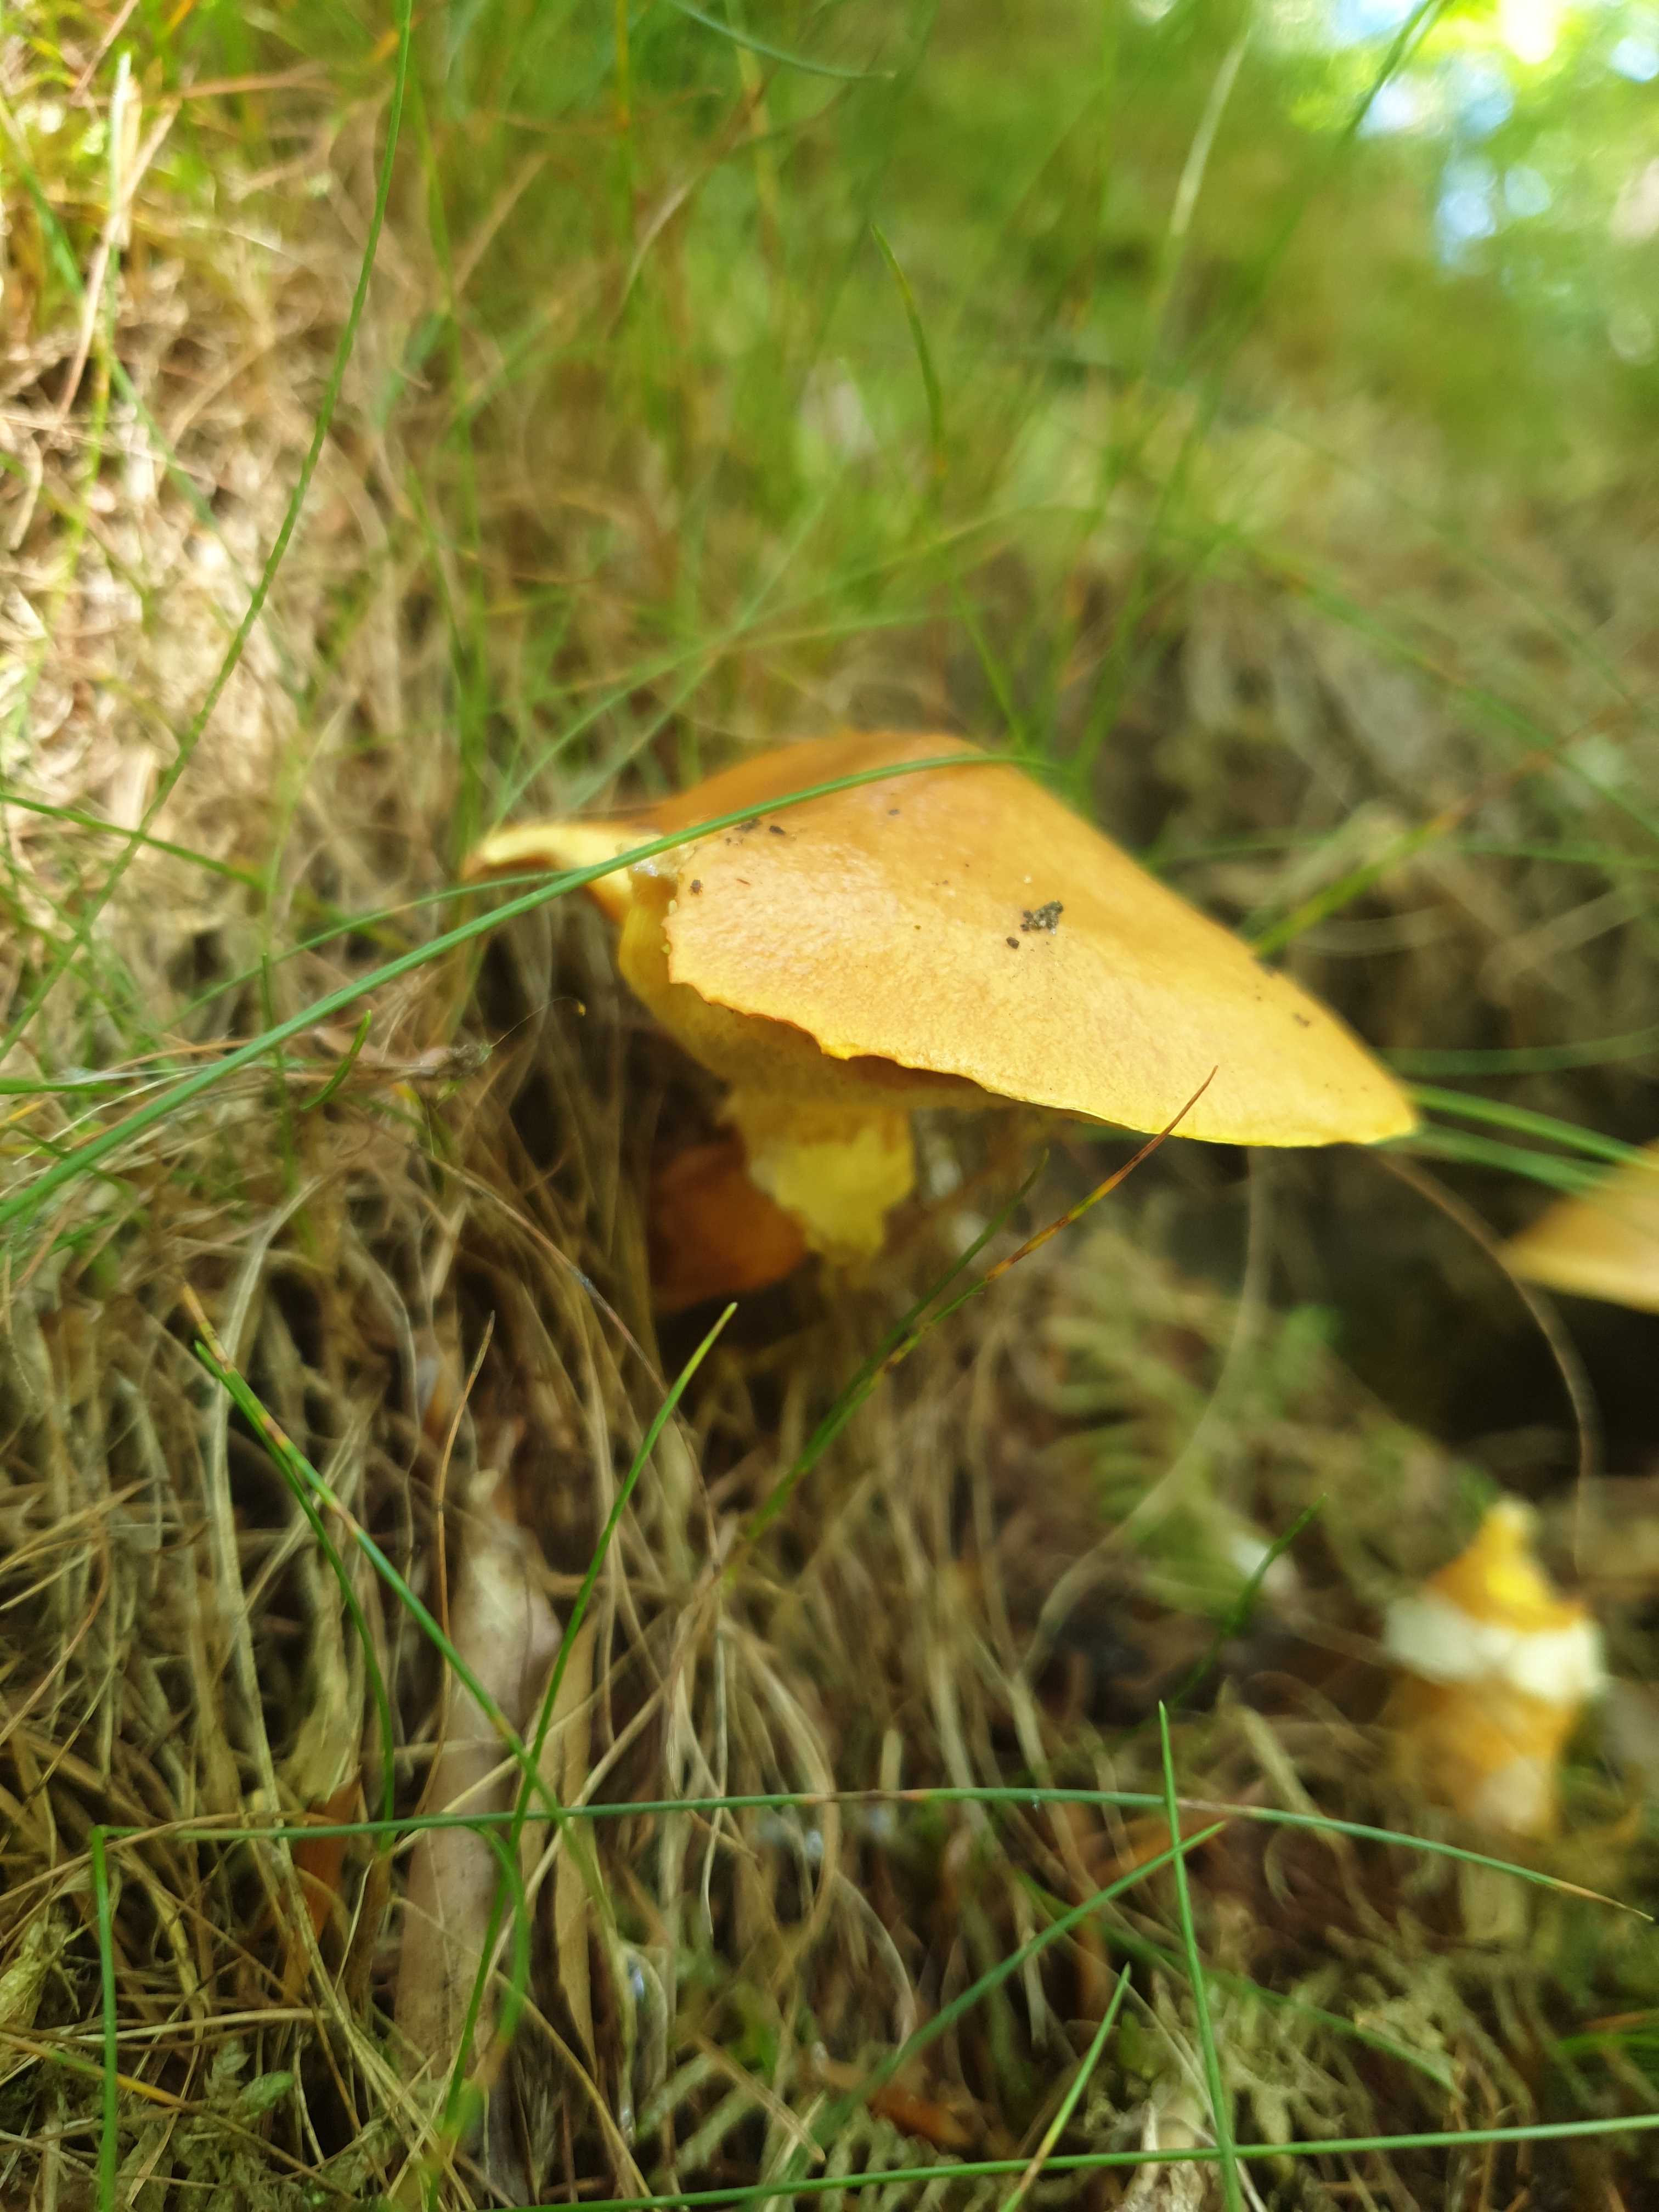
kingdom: Fungi
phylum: Basidiomycota
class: Agaricomycetes
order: Boletales
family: Suillaceae
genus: Suillus
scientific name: Suillus grevillei
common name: lærke-slimrørhat
